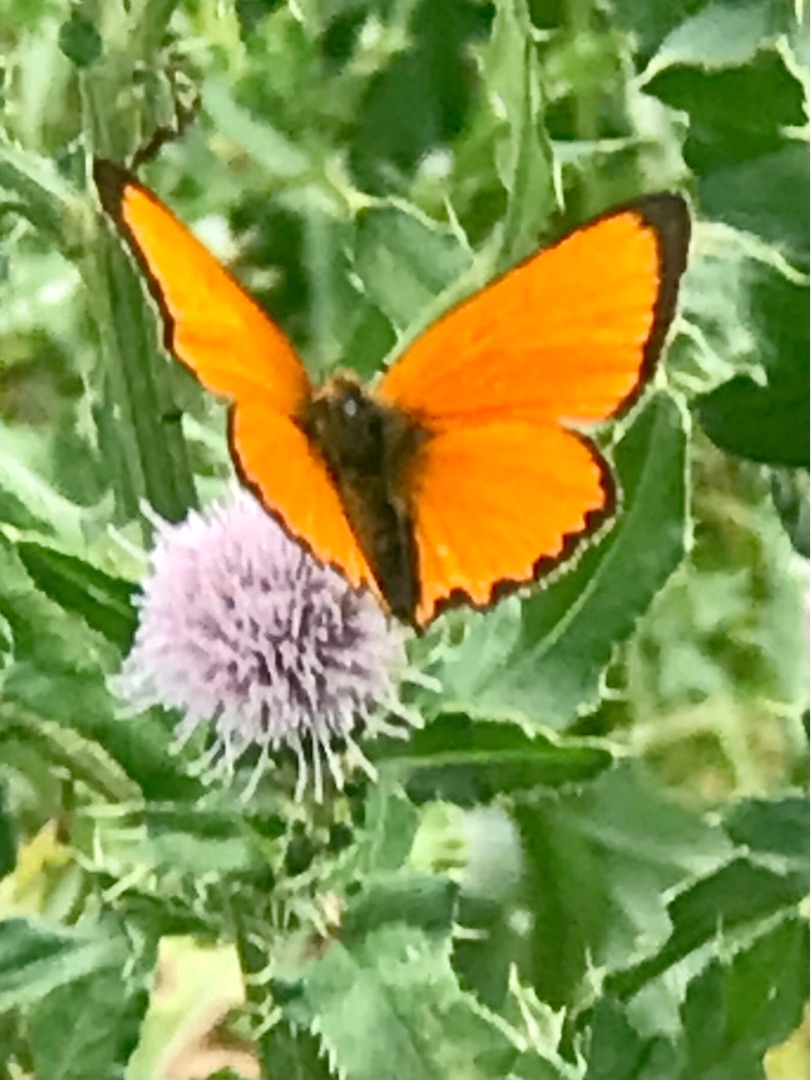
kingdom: Animalia
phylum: Arthropoda
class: Insecta
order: Lepidoptera
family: Lycaenidae
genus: Lycaena
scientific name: Lycaena virgaureae
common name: Dukatsommerfugl
